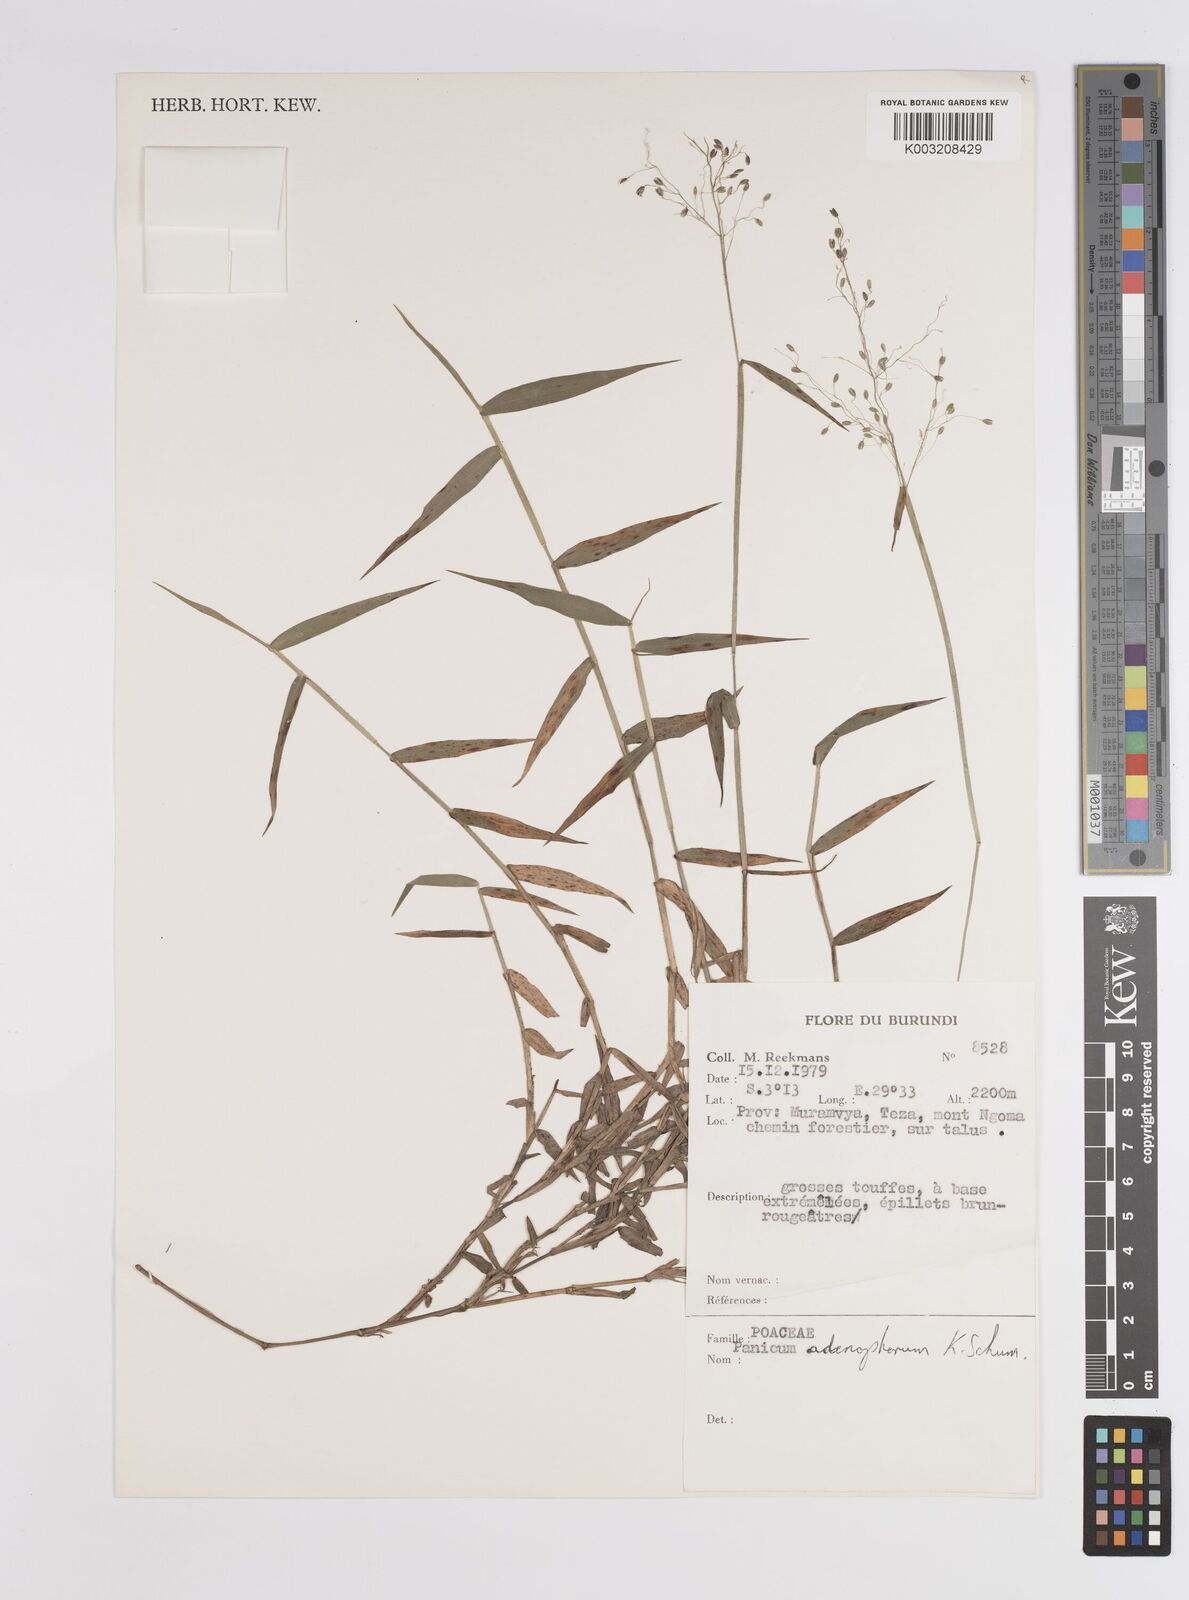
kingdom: Plantae
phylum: Tracheophyta
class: Liliopsida
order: Poales
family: Poaceae
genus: Adenochloa
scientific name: Adenochloa adenophora
